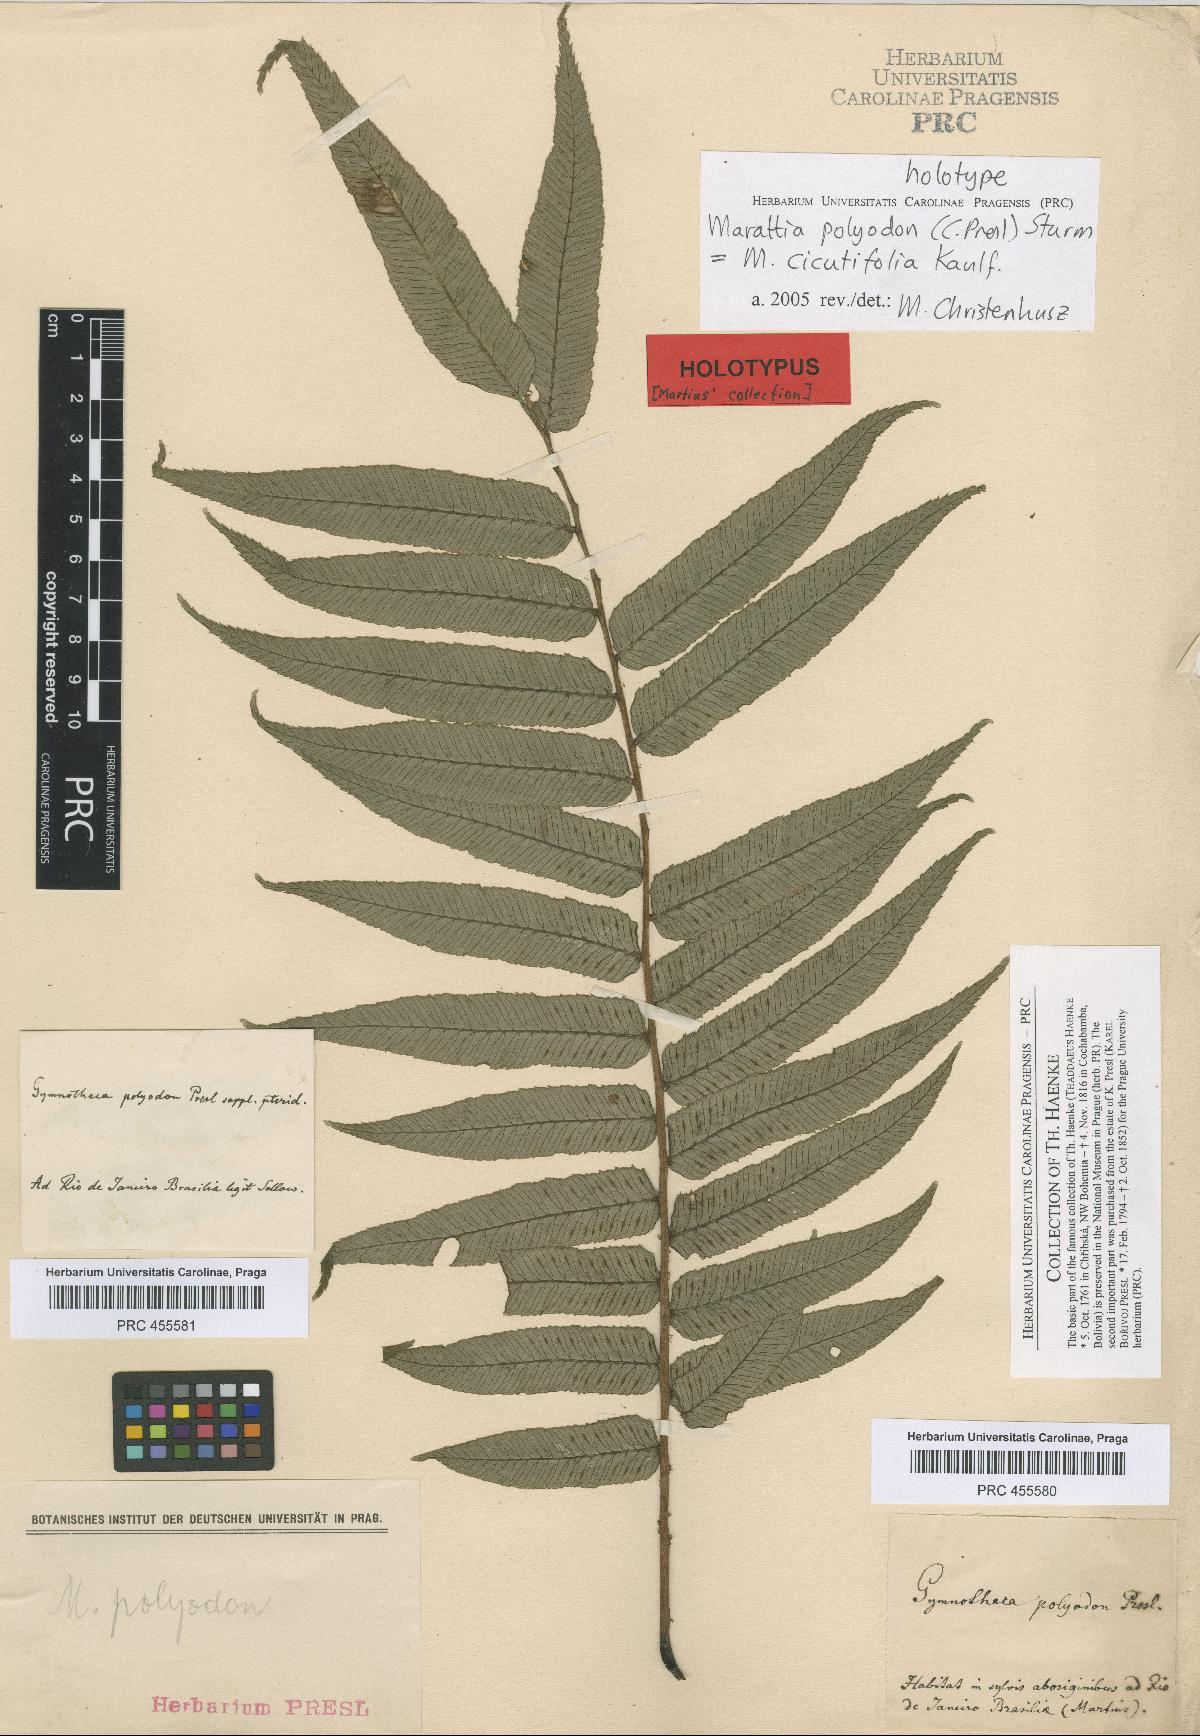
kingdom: Plantae
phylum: Tracheophyta
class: Polypodiopsida
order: Marattiales
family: Marattiaceae
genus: Eupodium
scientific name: Eupodium cicutifolium
